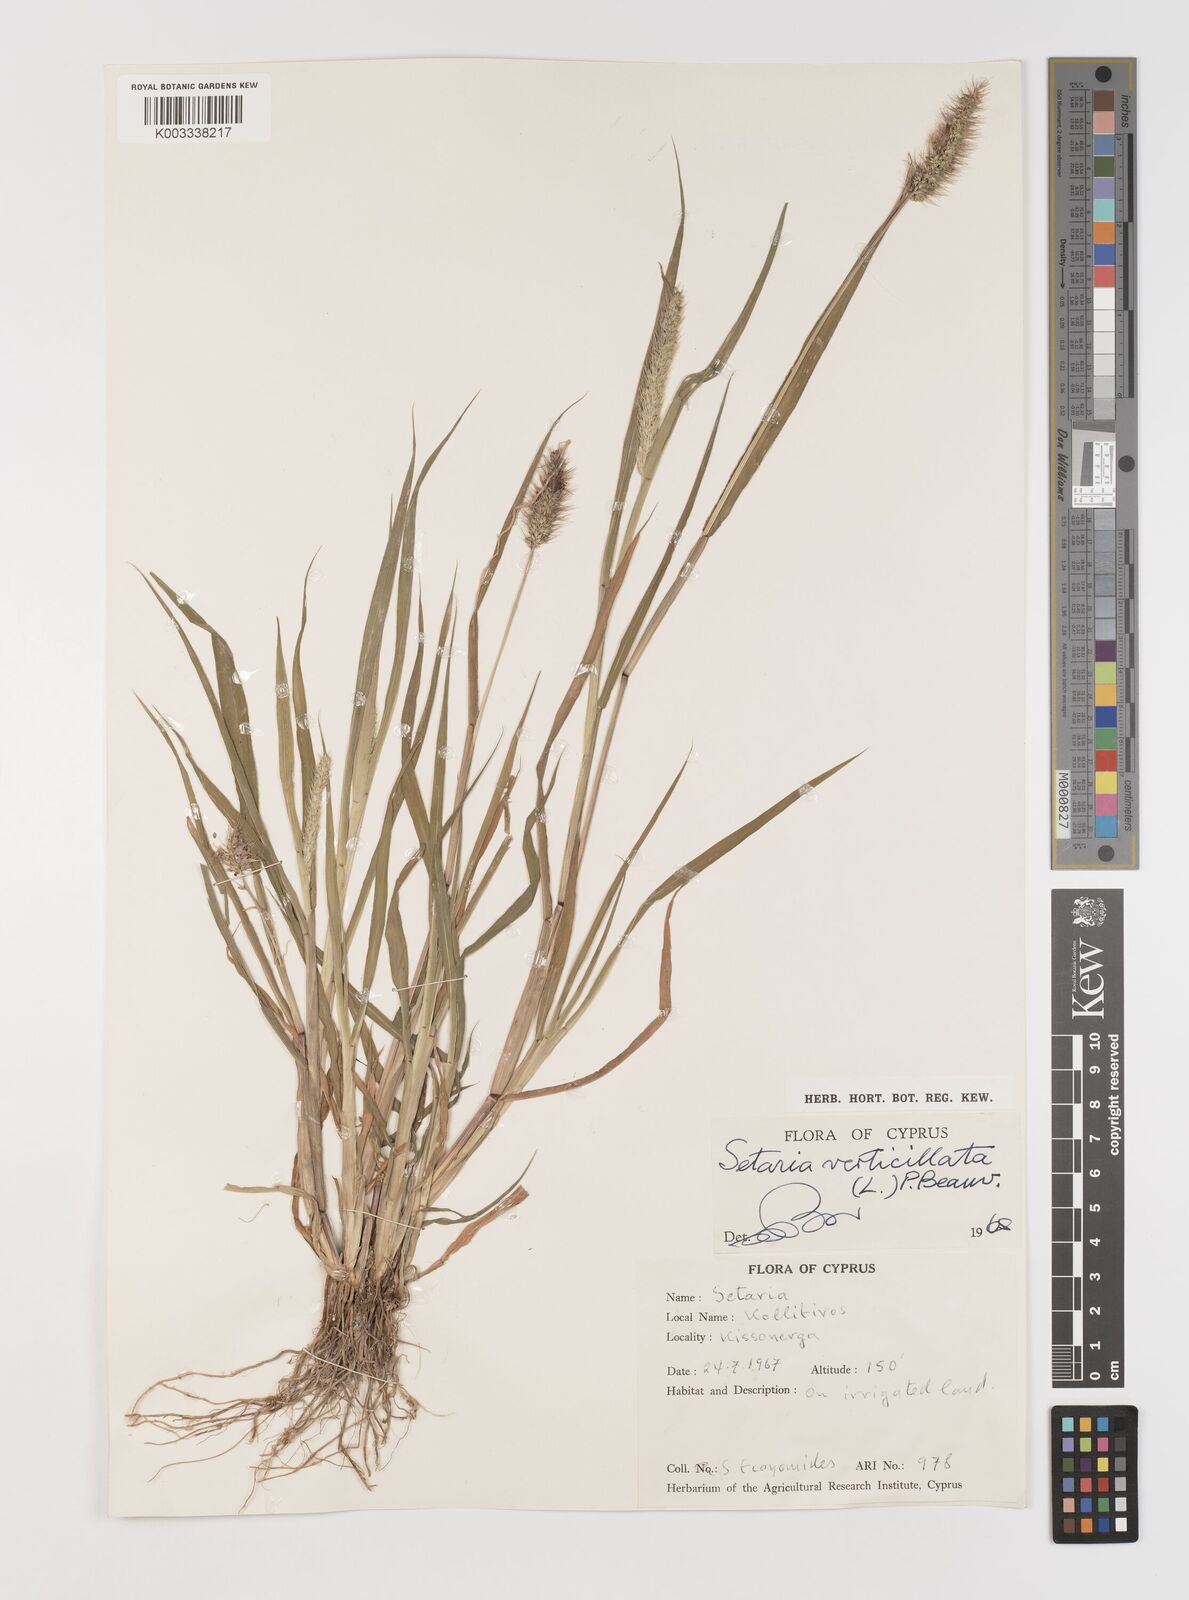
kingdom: Plantae
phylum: Tracheophyta
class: Liliopsida
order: Poales
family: Poaceae
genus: Setaria
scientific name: Setaria verticillata
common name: Hooked bristlegrass
